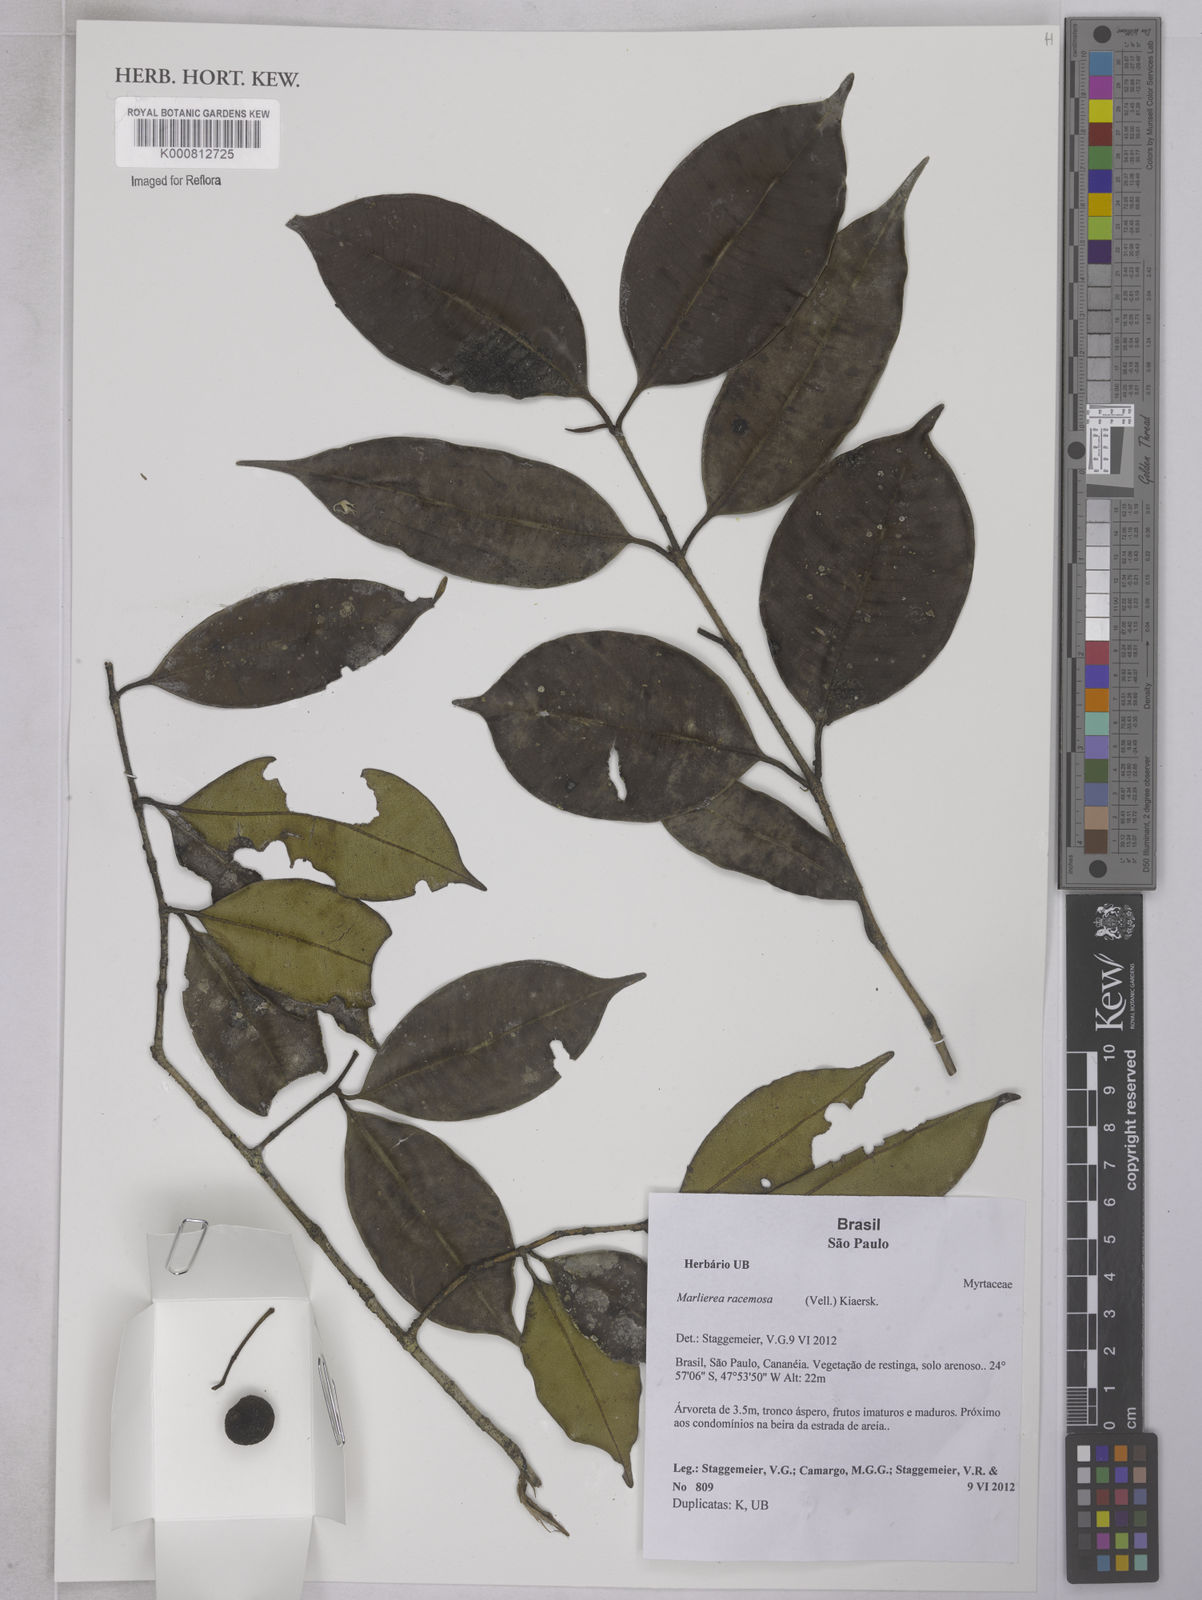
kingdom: Plantae
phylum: Tracheophyta
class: Magnoliopsida
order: Myrtales
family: Myrtaceae
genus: Myrcia
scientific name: Myrcia vellozoi
